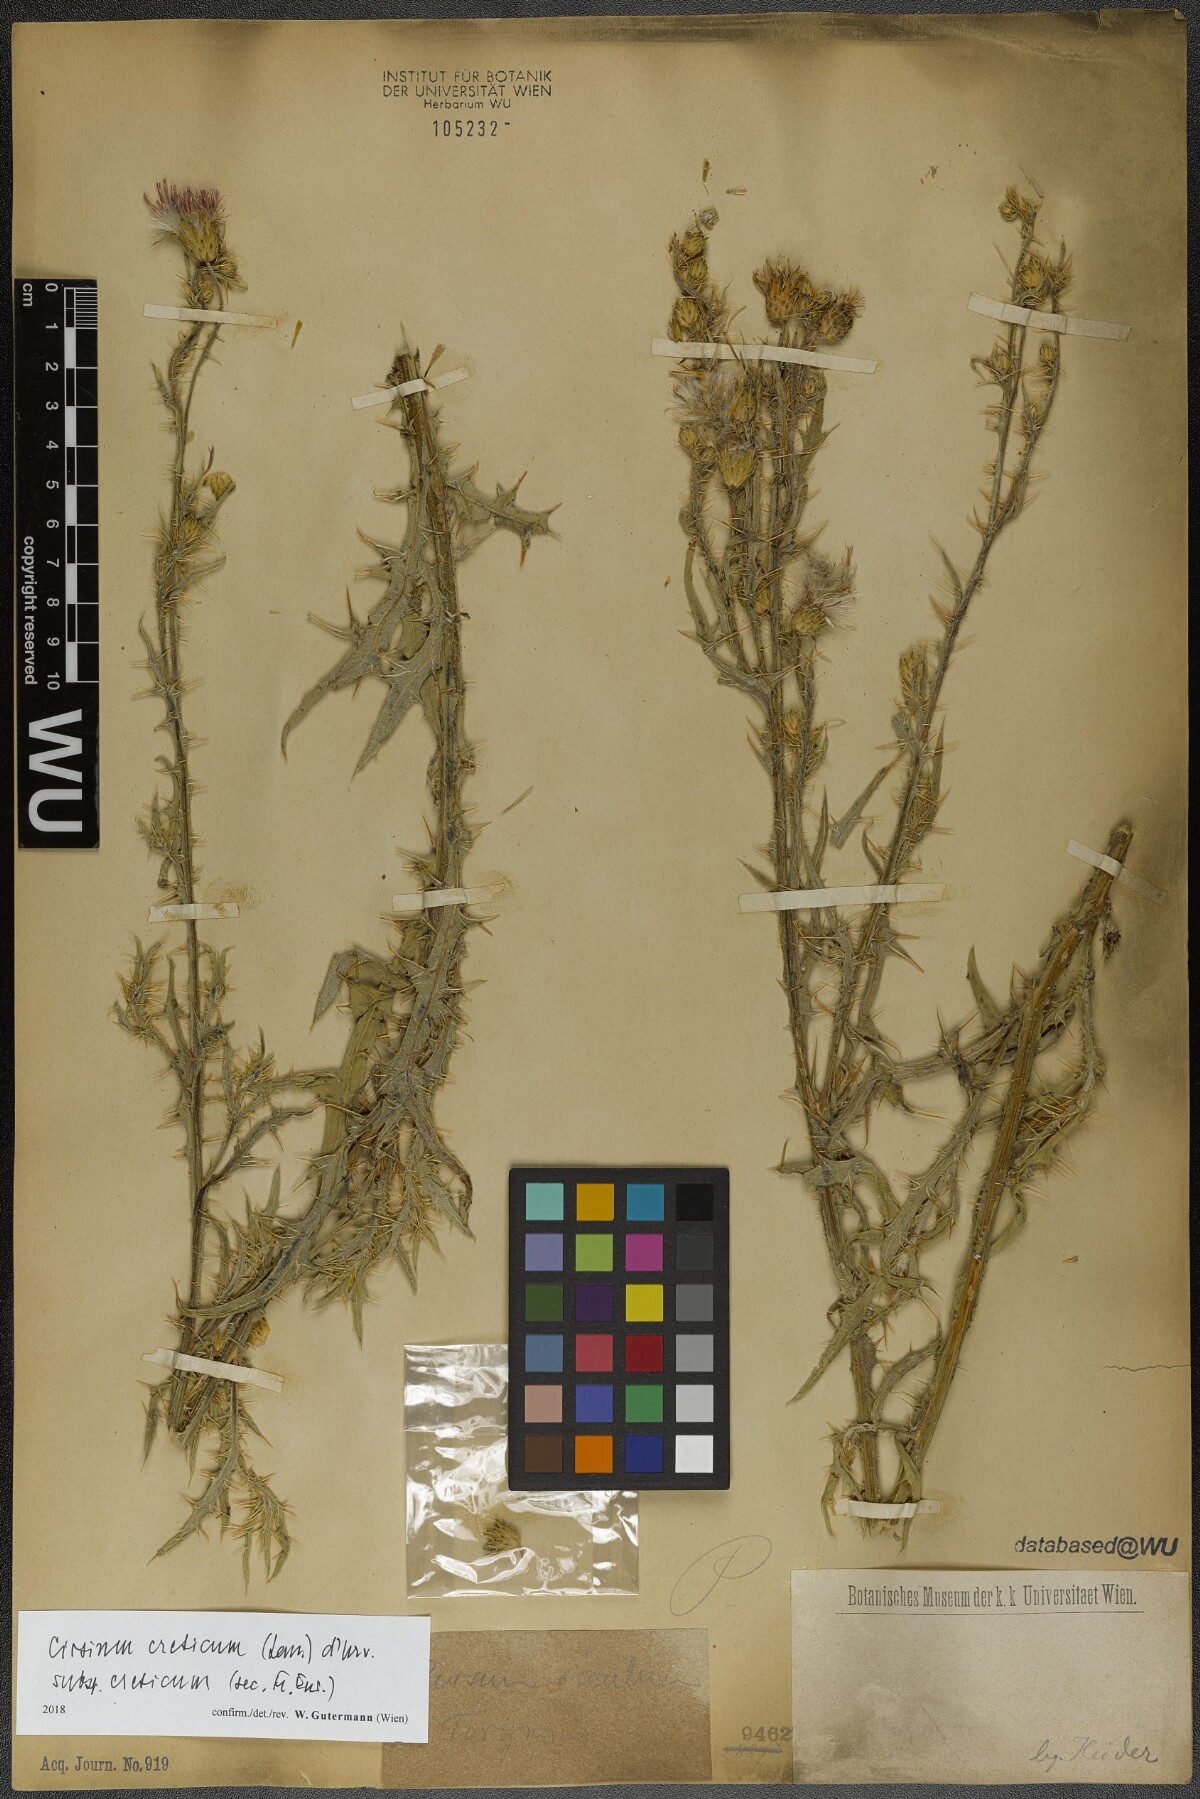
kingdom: Plantae
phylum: Tracheophyta
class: Magnoliopsida
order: Asterales
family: Asteraceae
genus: Cirsium
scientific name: Cirsium creticum
